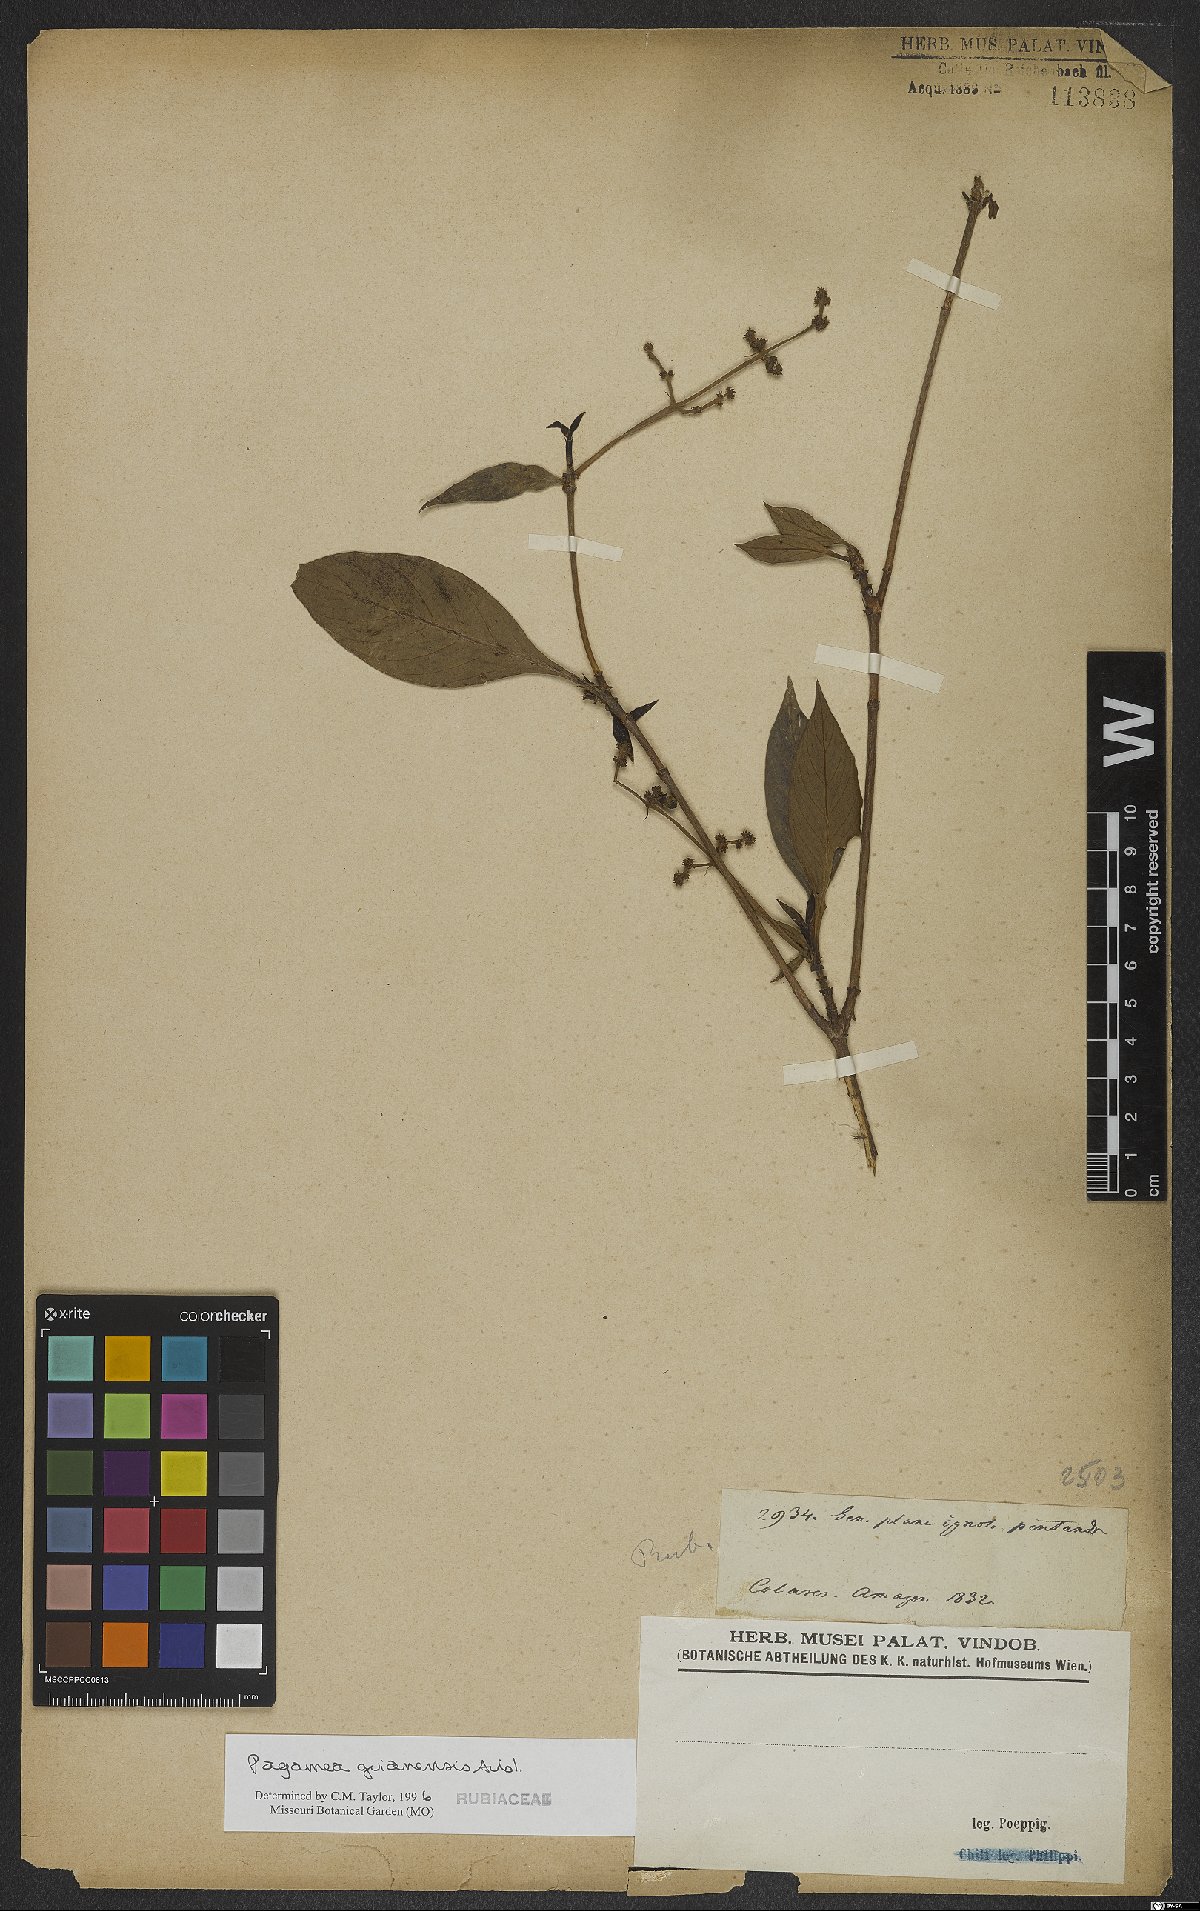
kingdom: Plantae
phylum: Tracheophyta
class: Magnoliopsida
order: Gentianales
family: Rubiaceae
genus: Pagamea
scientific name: Pagamea guianensis
